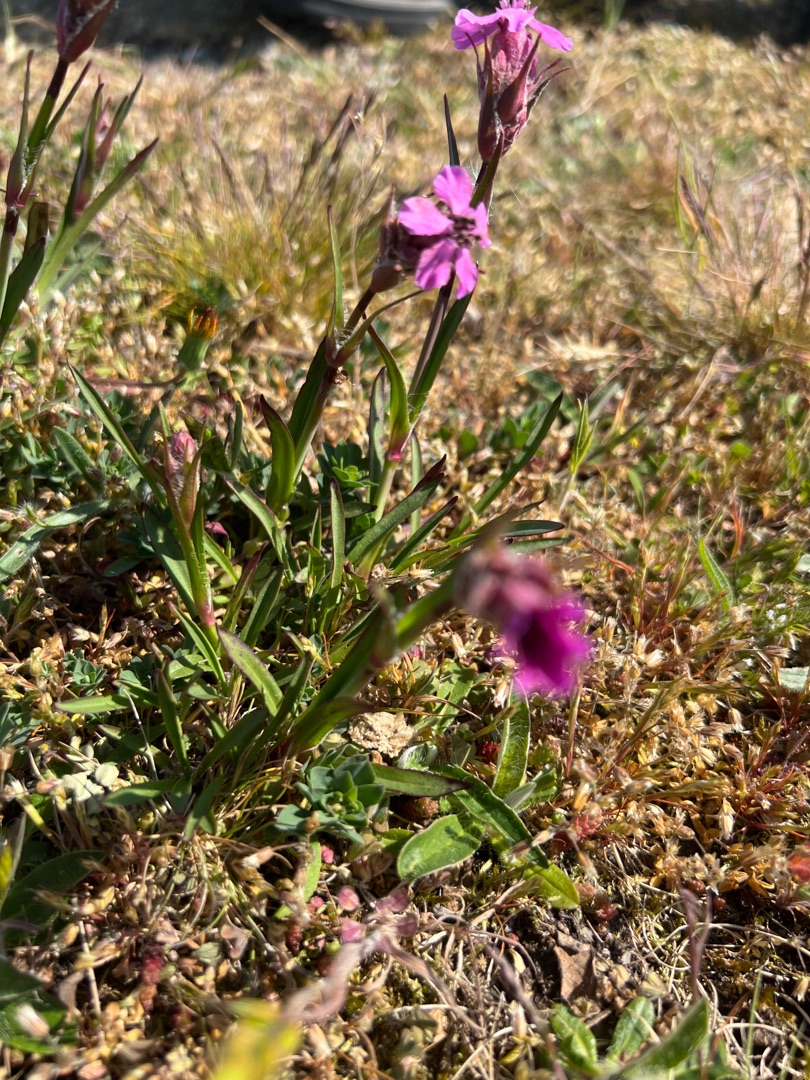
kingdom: Plantae
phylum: Tracheophyta
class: Magnoliopsida
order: Caryophyllales
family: Caryophyllaceae
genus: Viscaria
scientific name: Viscaria vulgaris
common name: Tjærenellike
